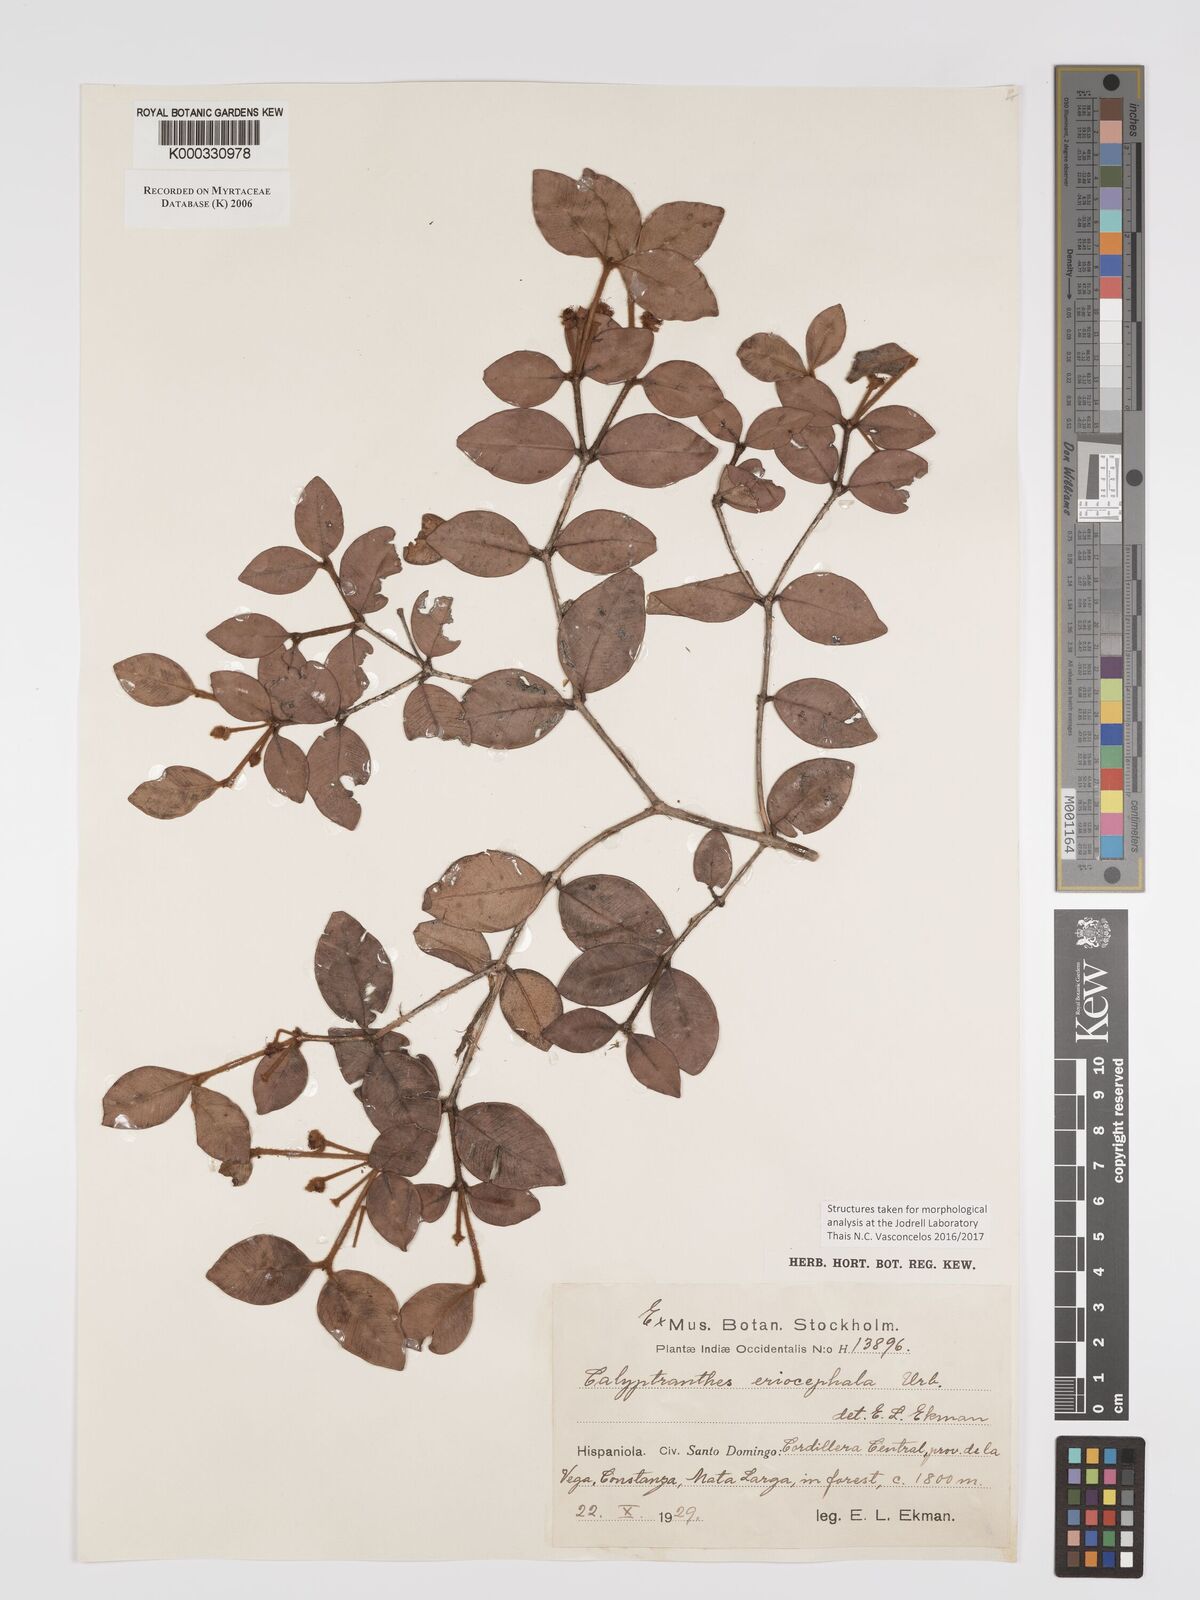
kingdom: Plantae
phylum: Tracheophyta
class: Magnoliopsida
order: Myrtales
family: Myrtaceae
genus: Myrcia
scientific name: Myrcia eriocephala
